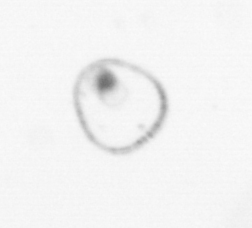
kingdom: Chromista
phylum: Myzozoa
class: Dinophyceae
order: Noctilucales
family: Noctilucaceae
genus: Noctiluca
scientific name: Noctiluca scintillans
